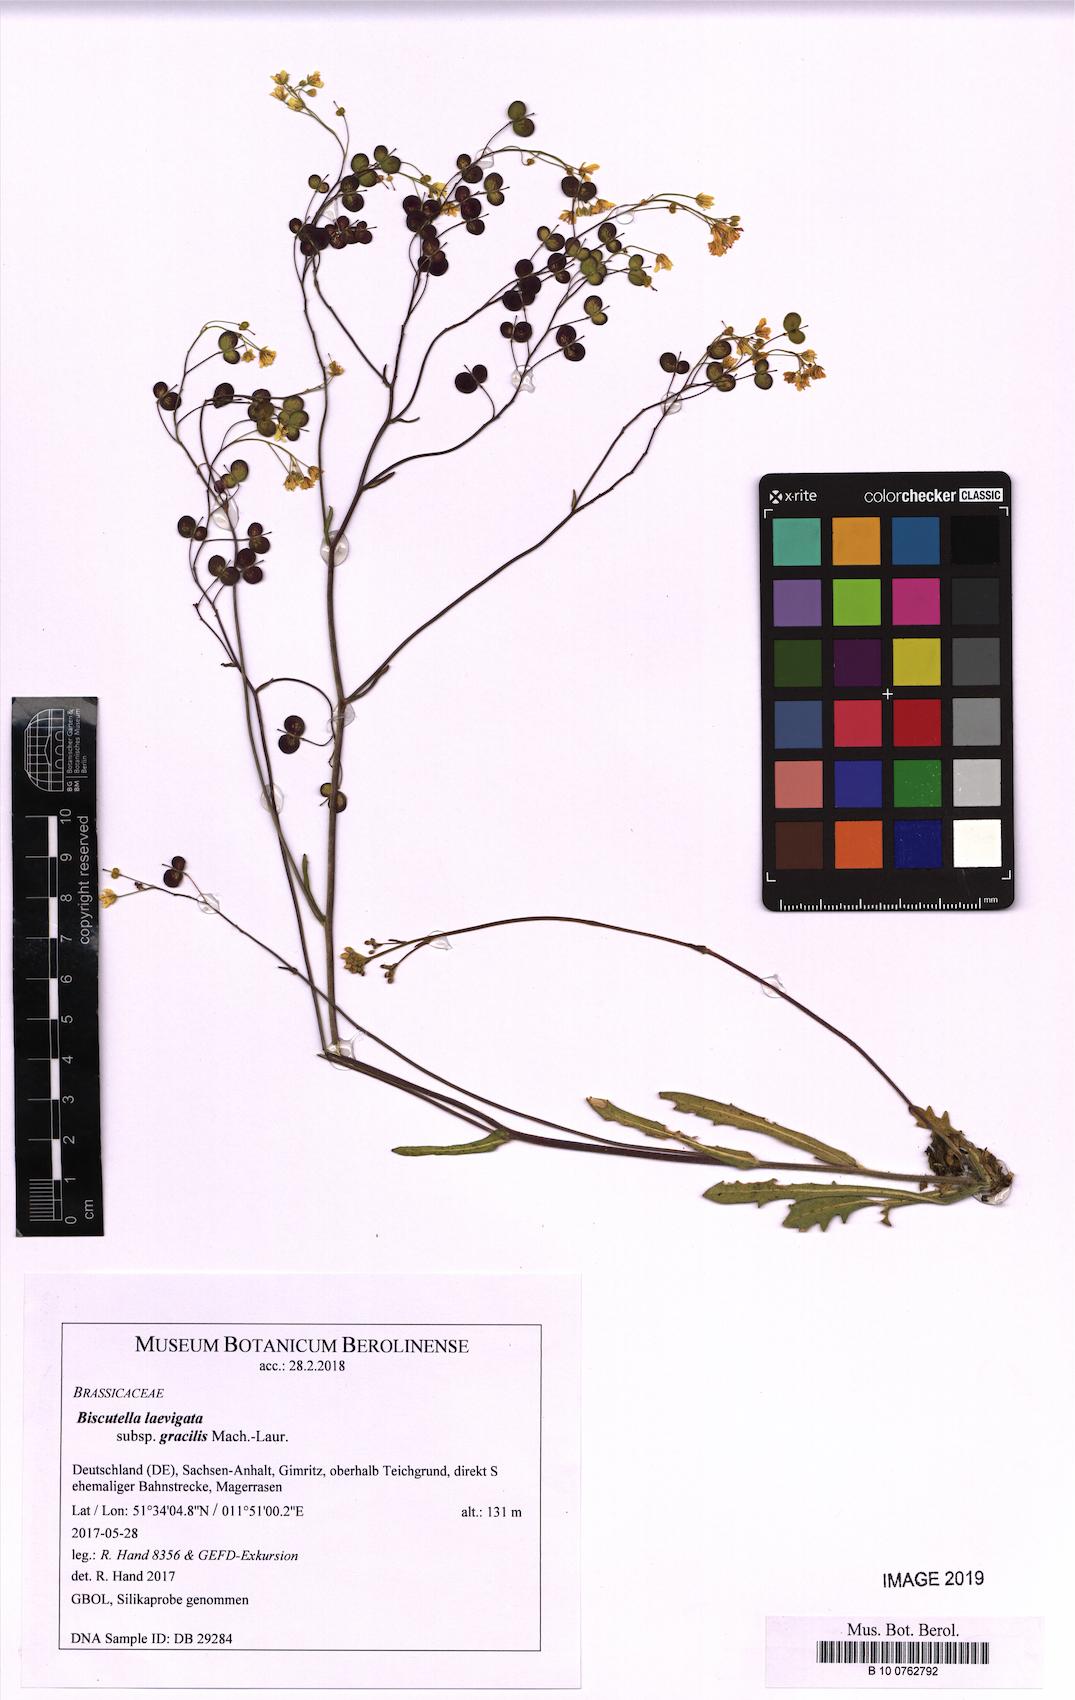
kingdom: Plantae
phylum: Tracheophyta
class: Magnoliopsida
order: Brassicales
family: Brassicaceae
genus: Biscutella
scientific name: Biscutella laevigata
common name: Buckler mustard
